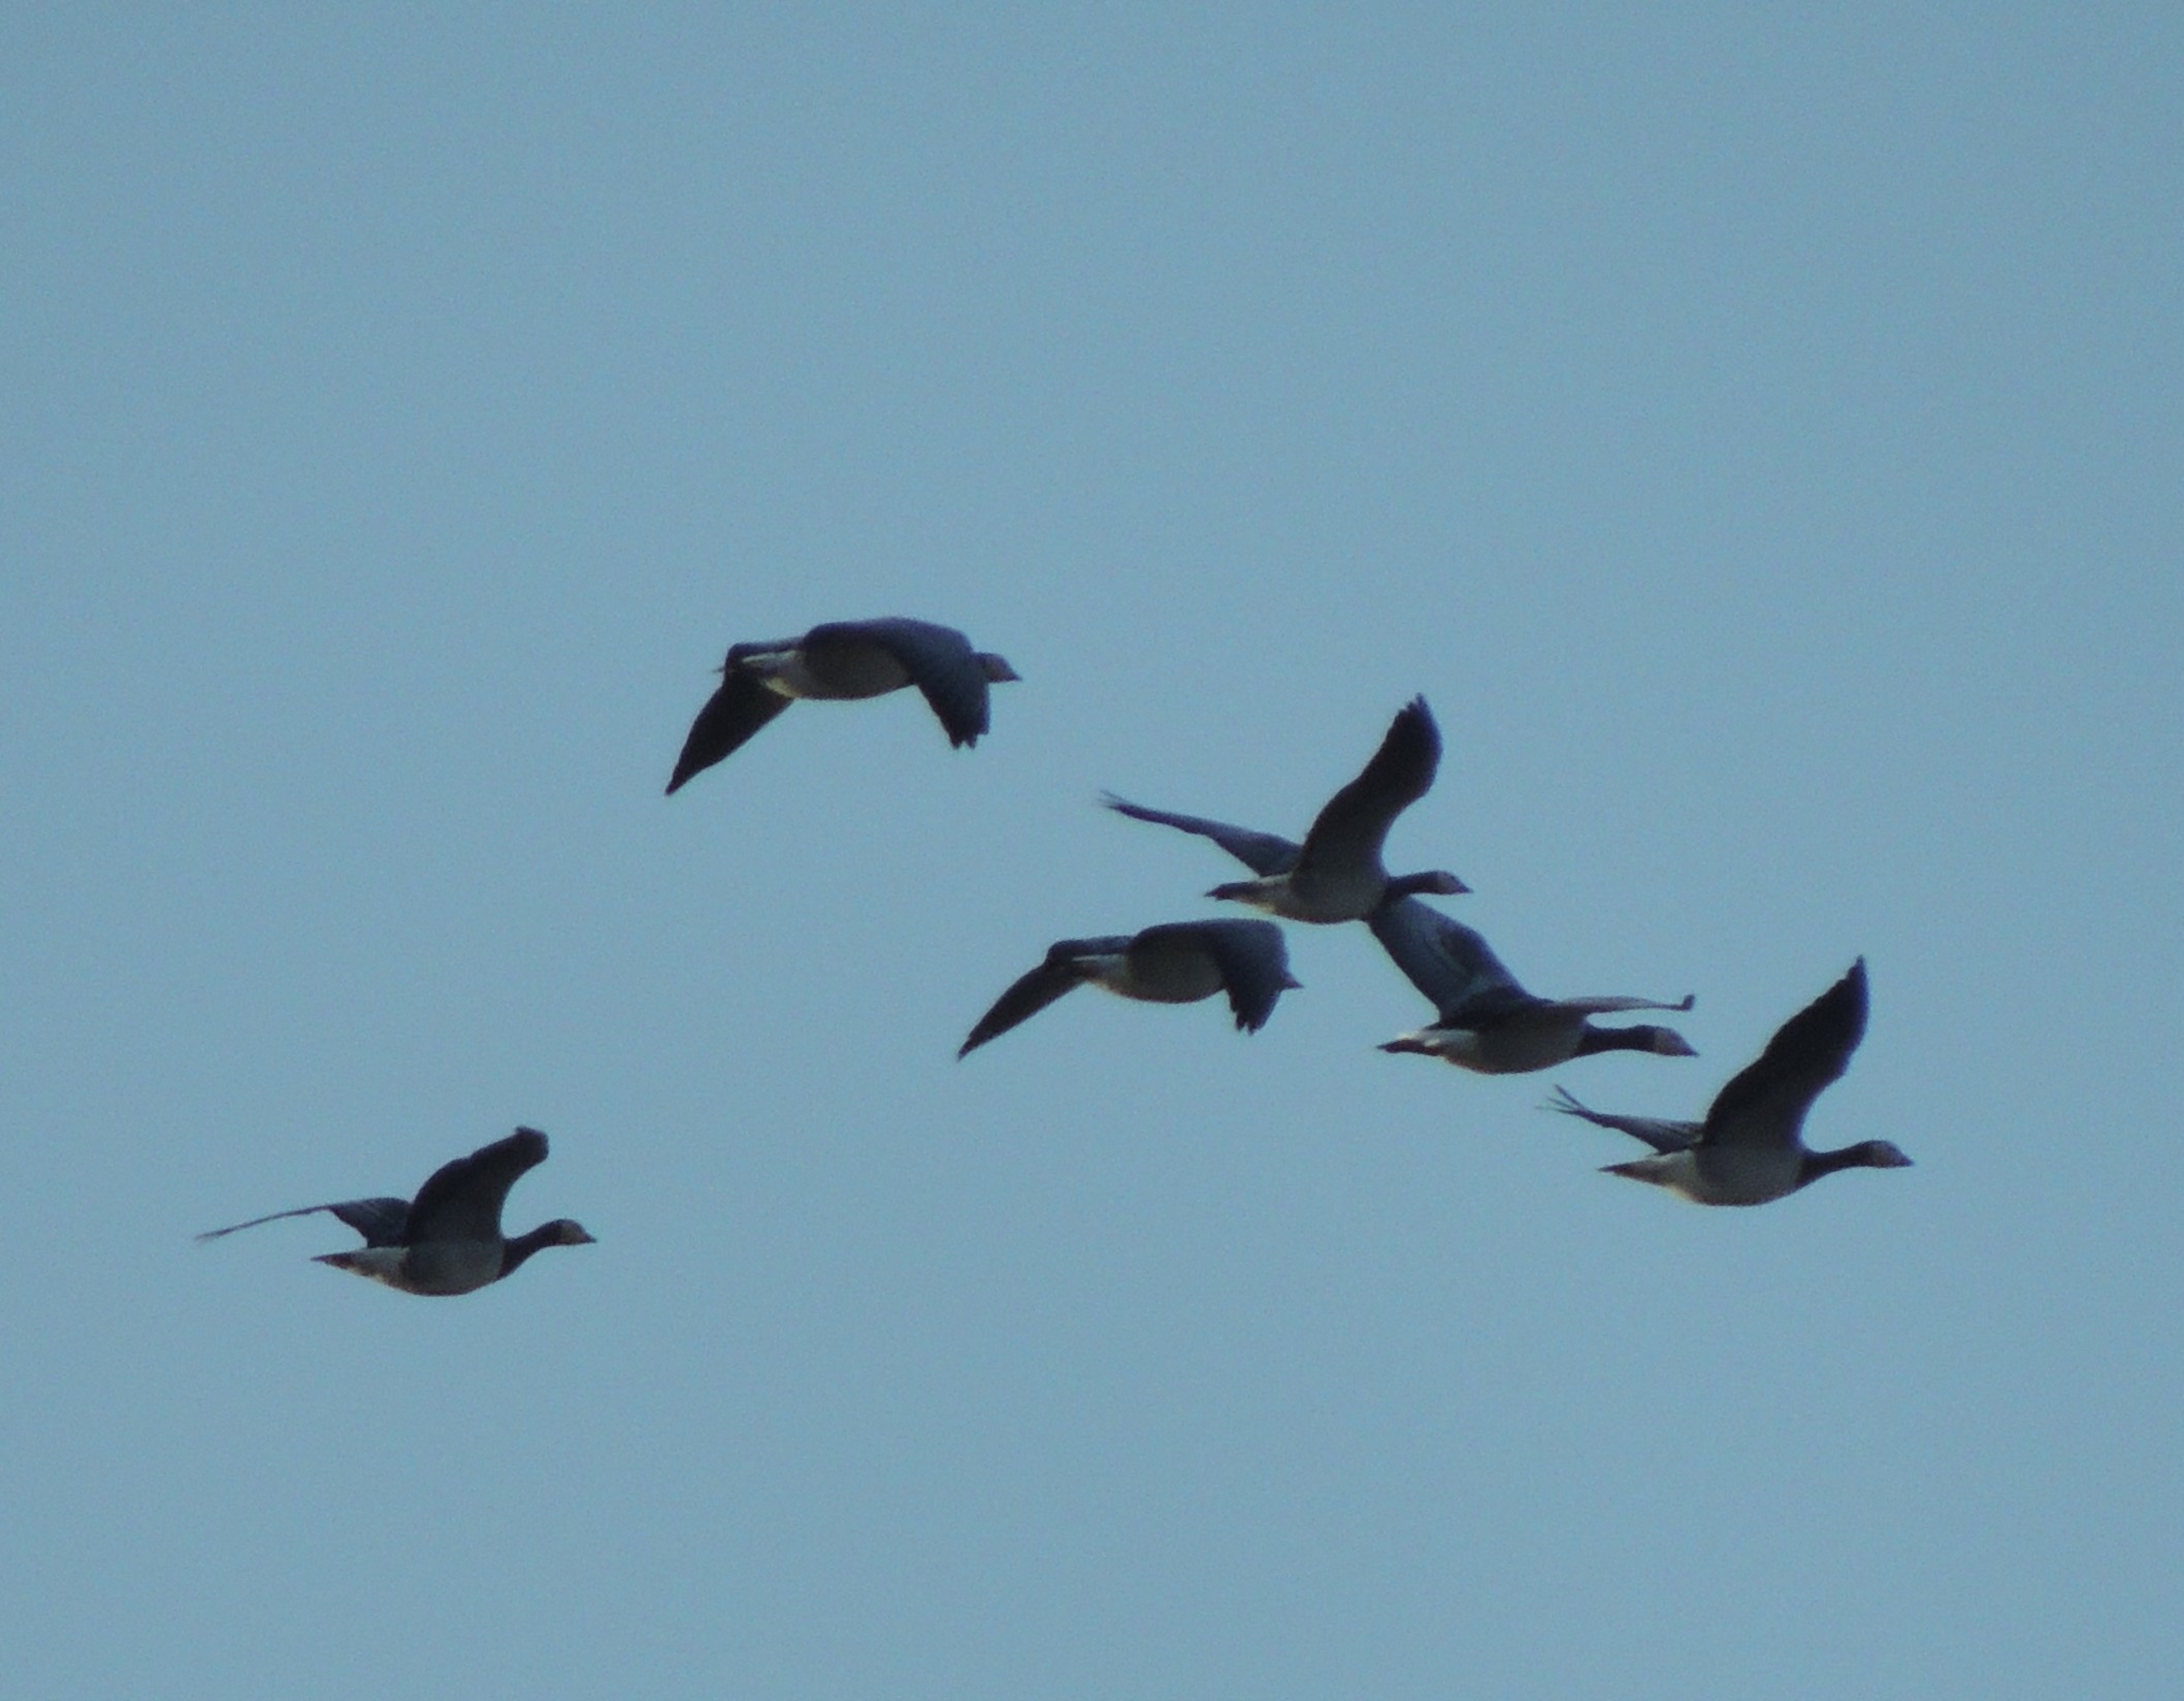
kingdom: Animalia
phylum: Chordata
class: Aves
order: Anseriformes
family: Anatidae
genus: Branta
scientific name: Branta leucopsis
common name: Bramgås
